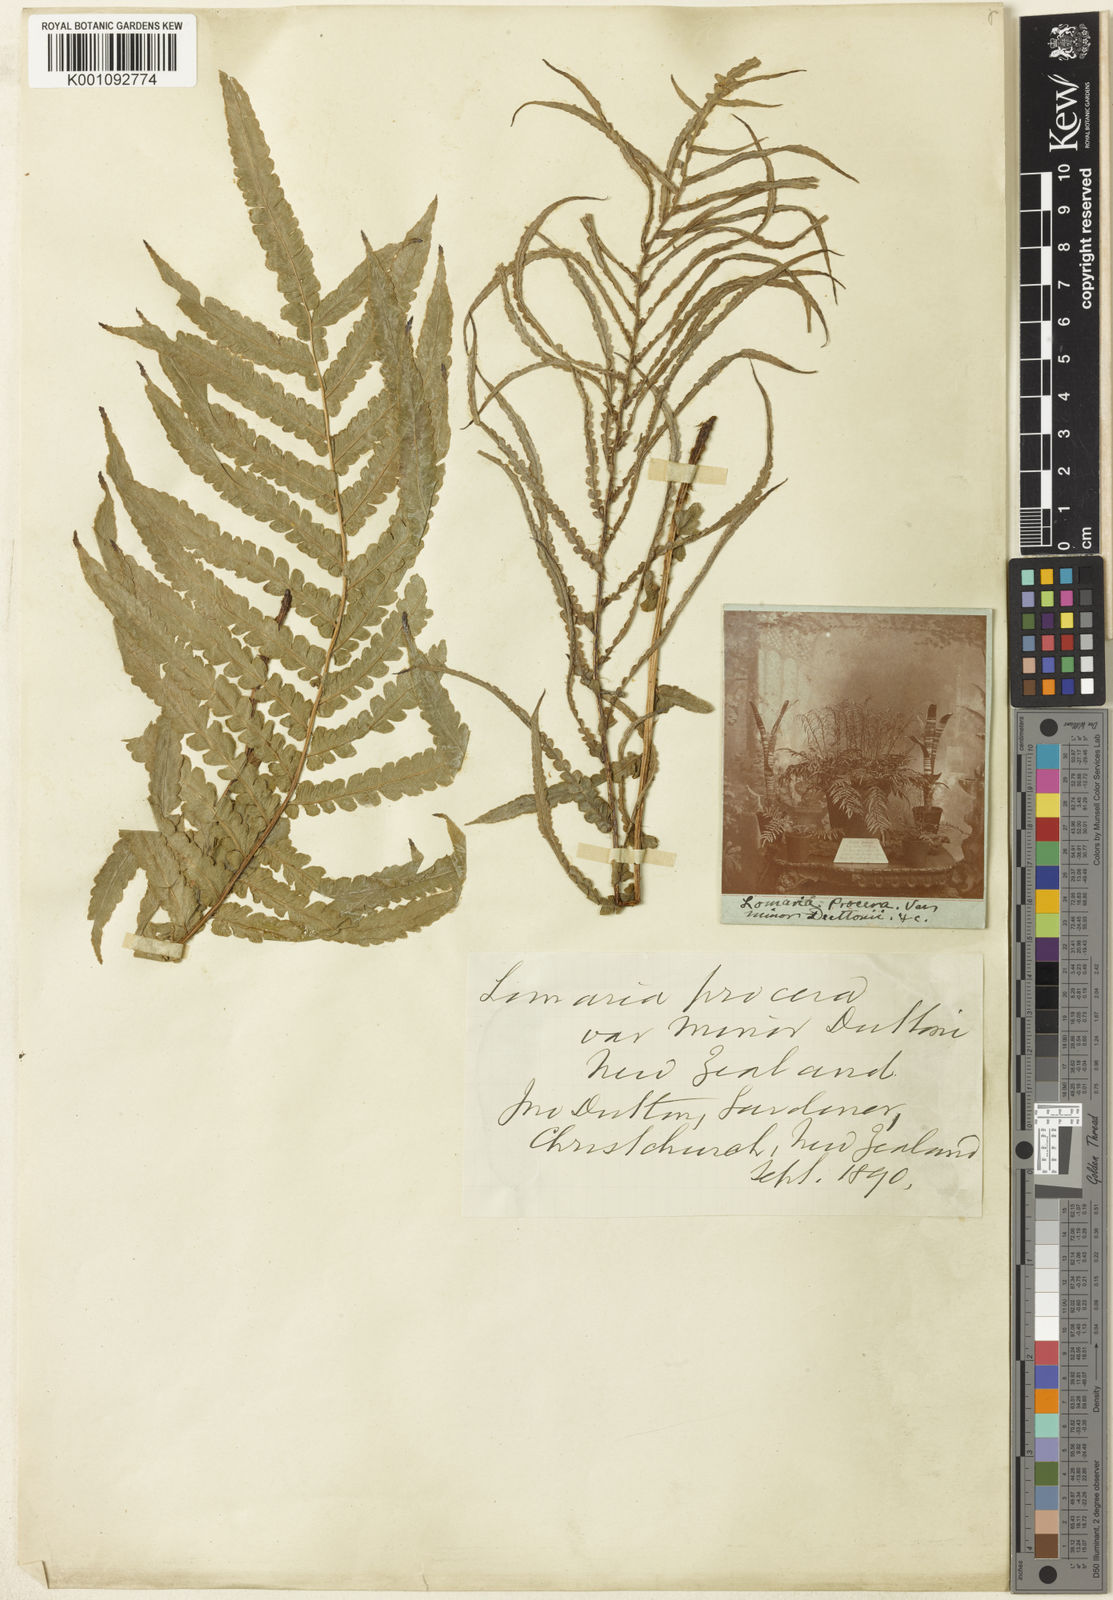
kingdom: Plantae
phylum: Tracheophyta
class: Polypodiopsida
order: Polypodiales
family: Blechnaceae
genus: Parablechnum
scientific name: Parablechnum minus
